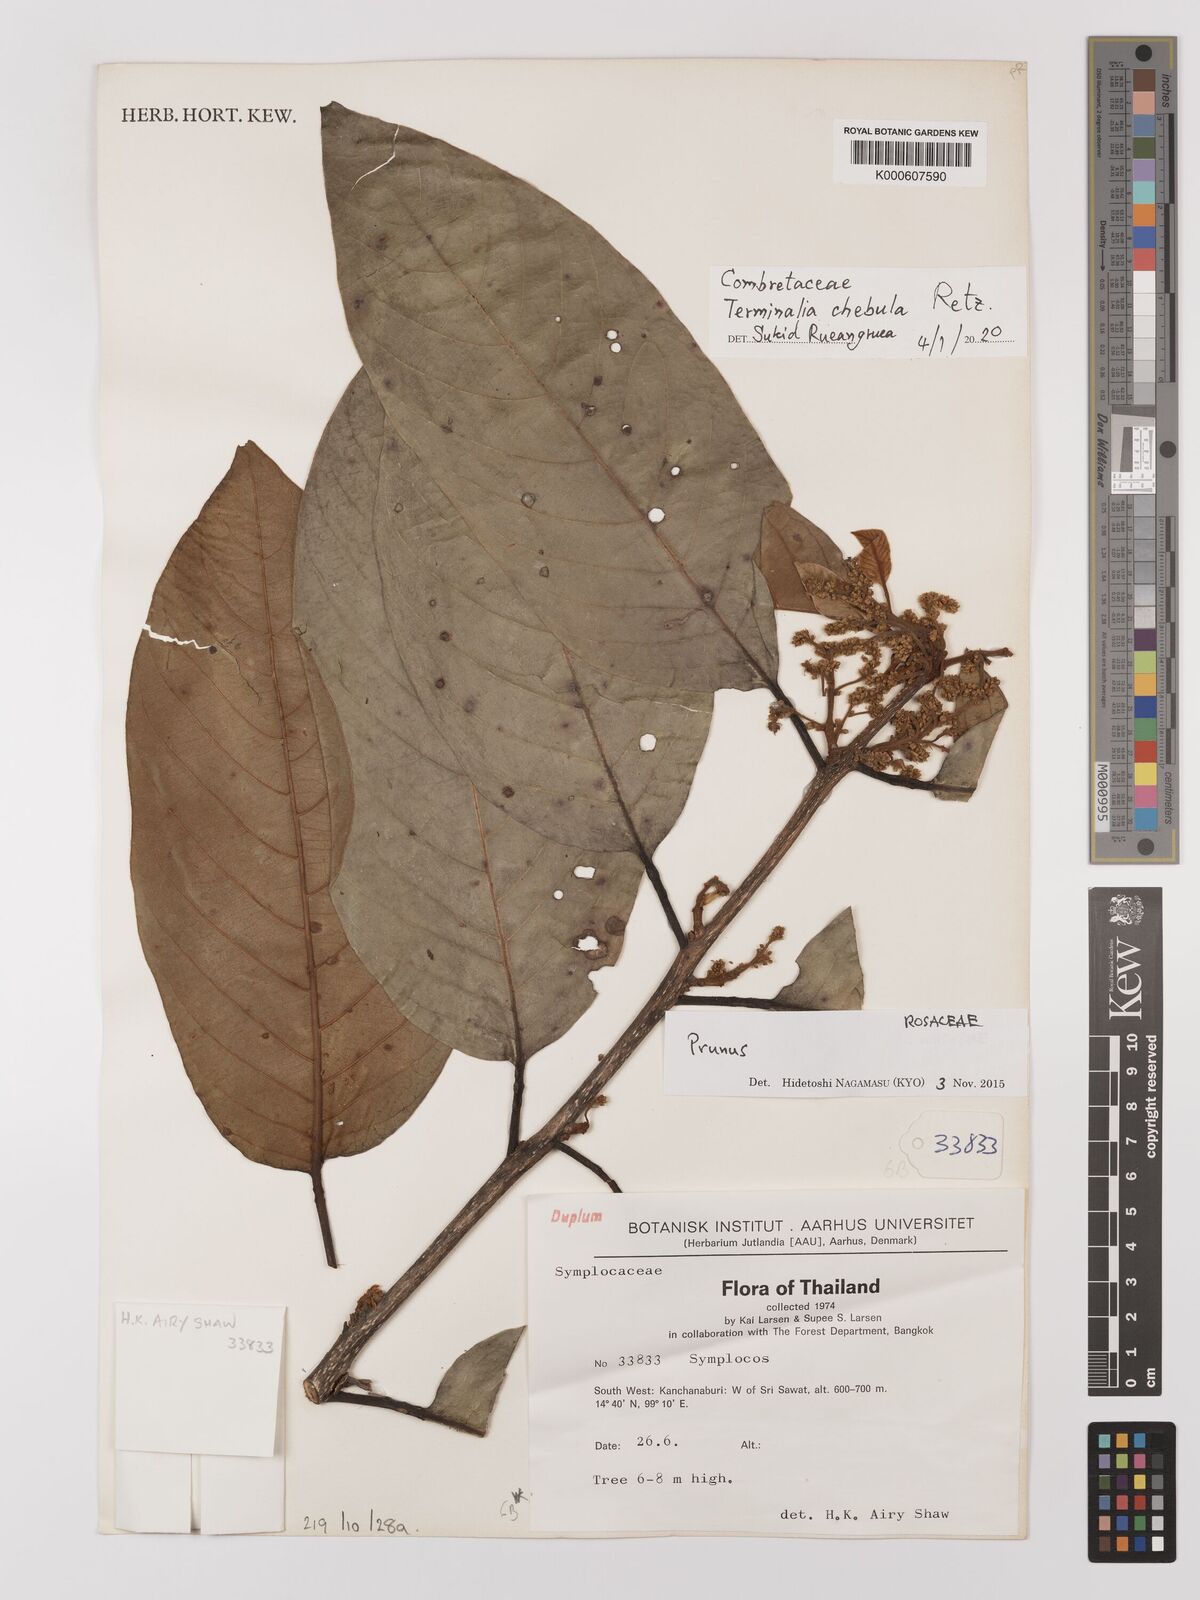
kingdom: Plantae
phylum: Tracheophyta
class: Magnoliopsida
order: Myrtales
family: Combretaceae
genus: Terminalia
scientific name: Terminalia chebula
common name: Myrobalan
